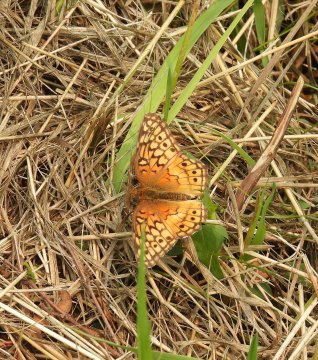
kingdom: Animalia
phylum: Arthropoda
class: Insecta
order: Lepidoptera
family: Nymphalidae
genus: Euptoieta
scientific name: Euptoieta claudia
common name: Variegated Fritillary
